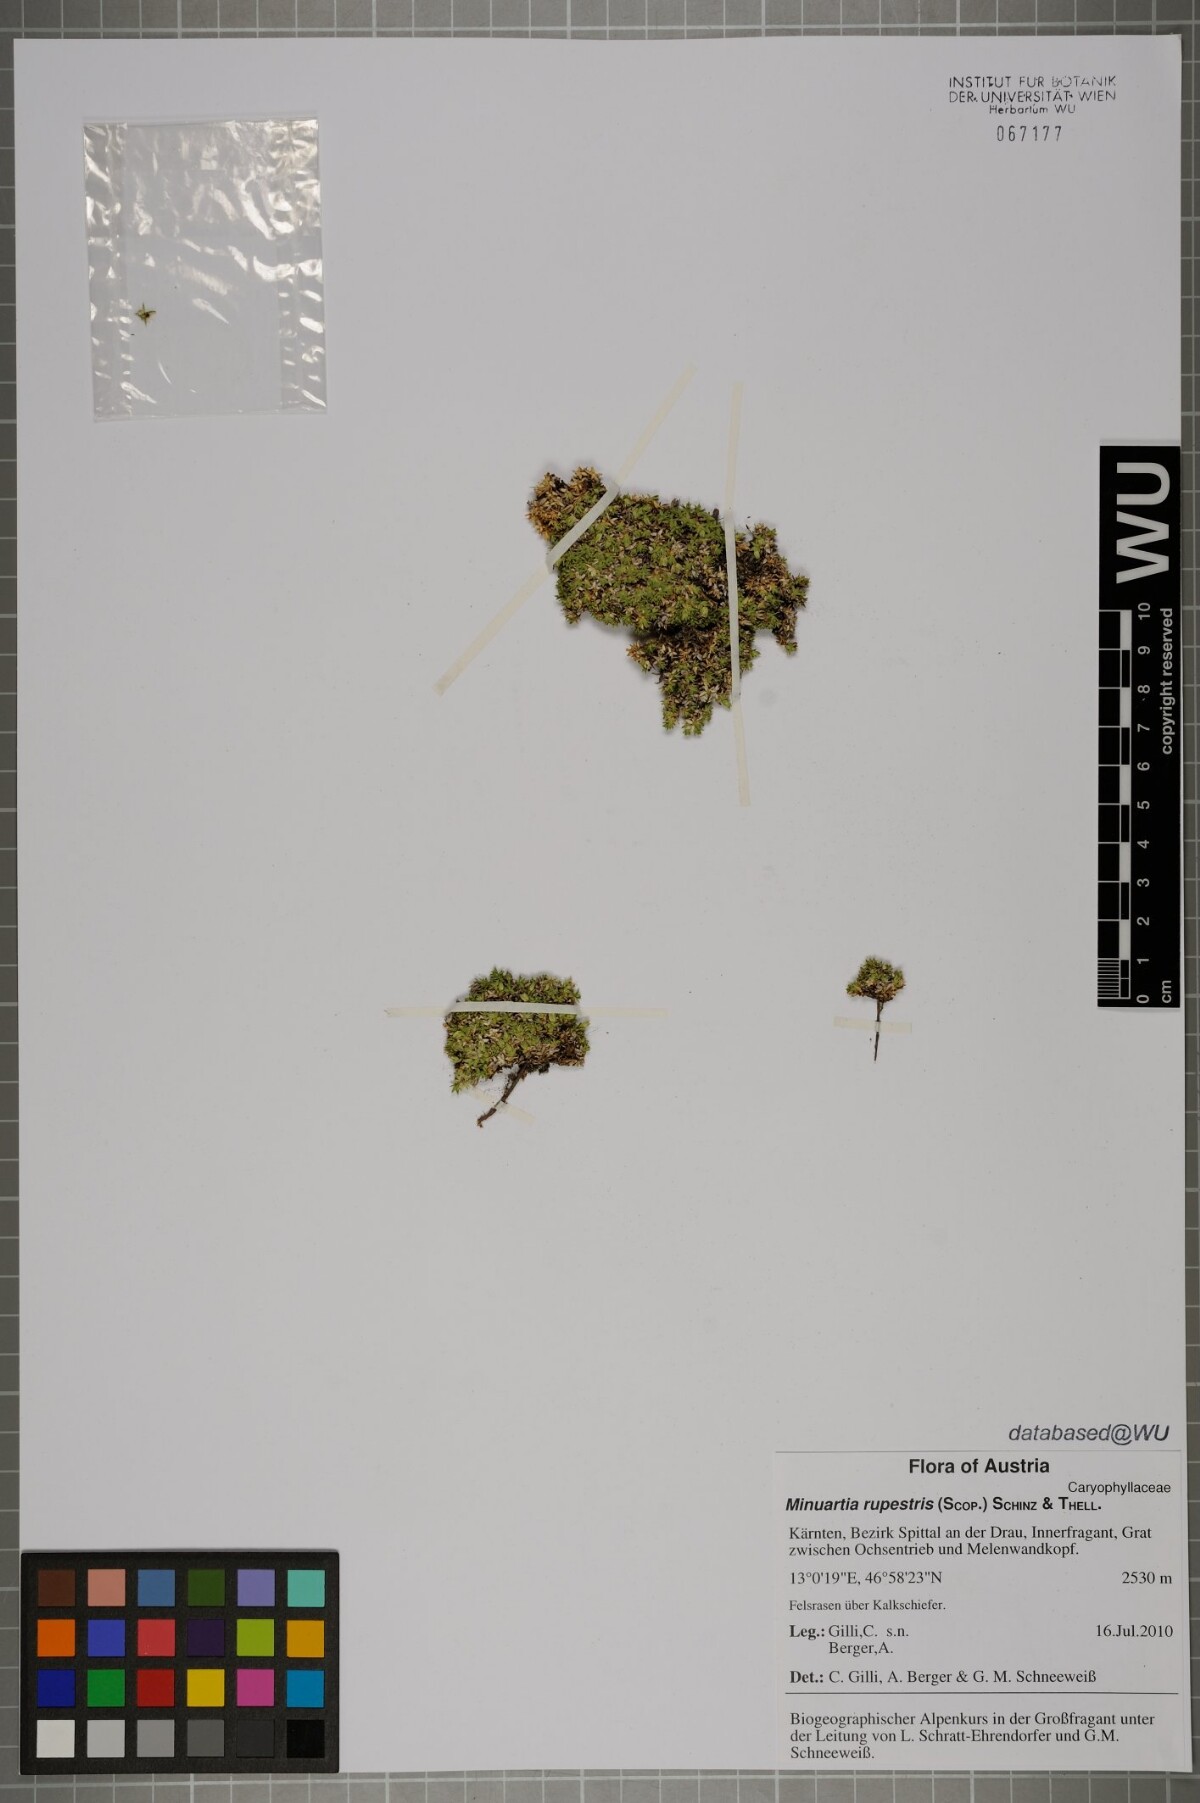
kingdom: Plantae
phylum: Tracheophyta
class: Magnoliopsida
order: Caryophyllales
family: Caryophyllaceae
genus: Facchinia
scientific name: Facchinia rupestris
